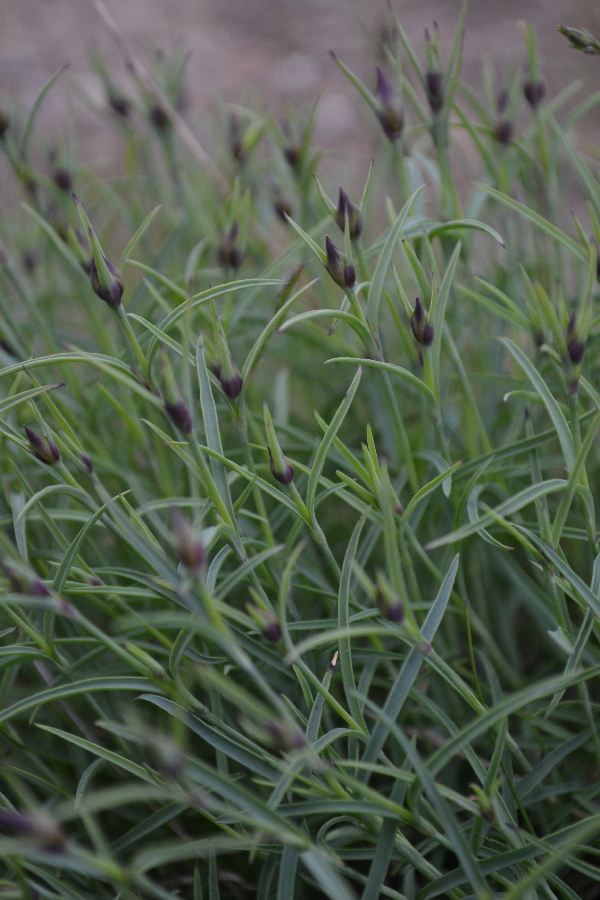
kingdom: Plantae
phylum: Tracheophyta
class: Magnoliopsida
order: Caryophyllales
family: Caryophyllaceae
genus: Dianthus
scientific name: Dianthus repens
